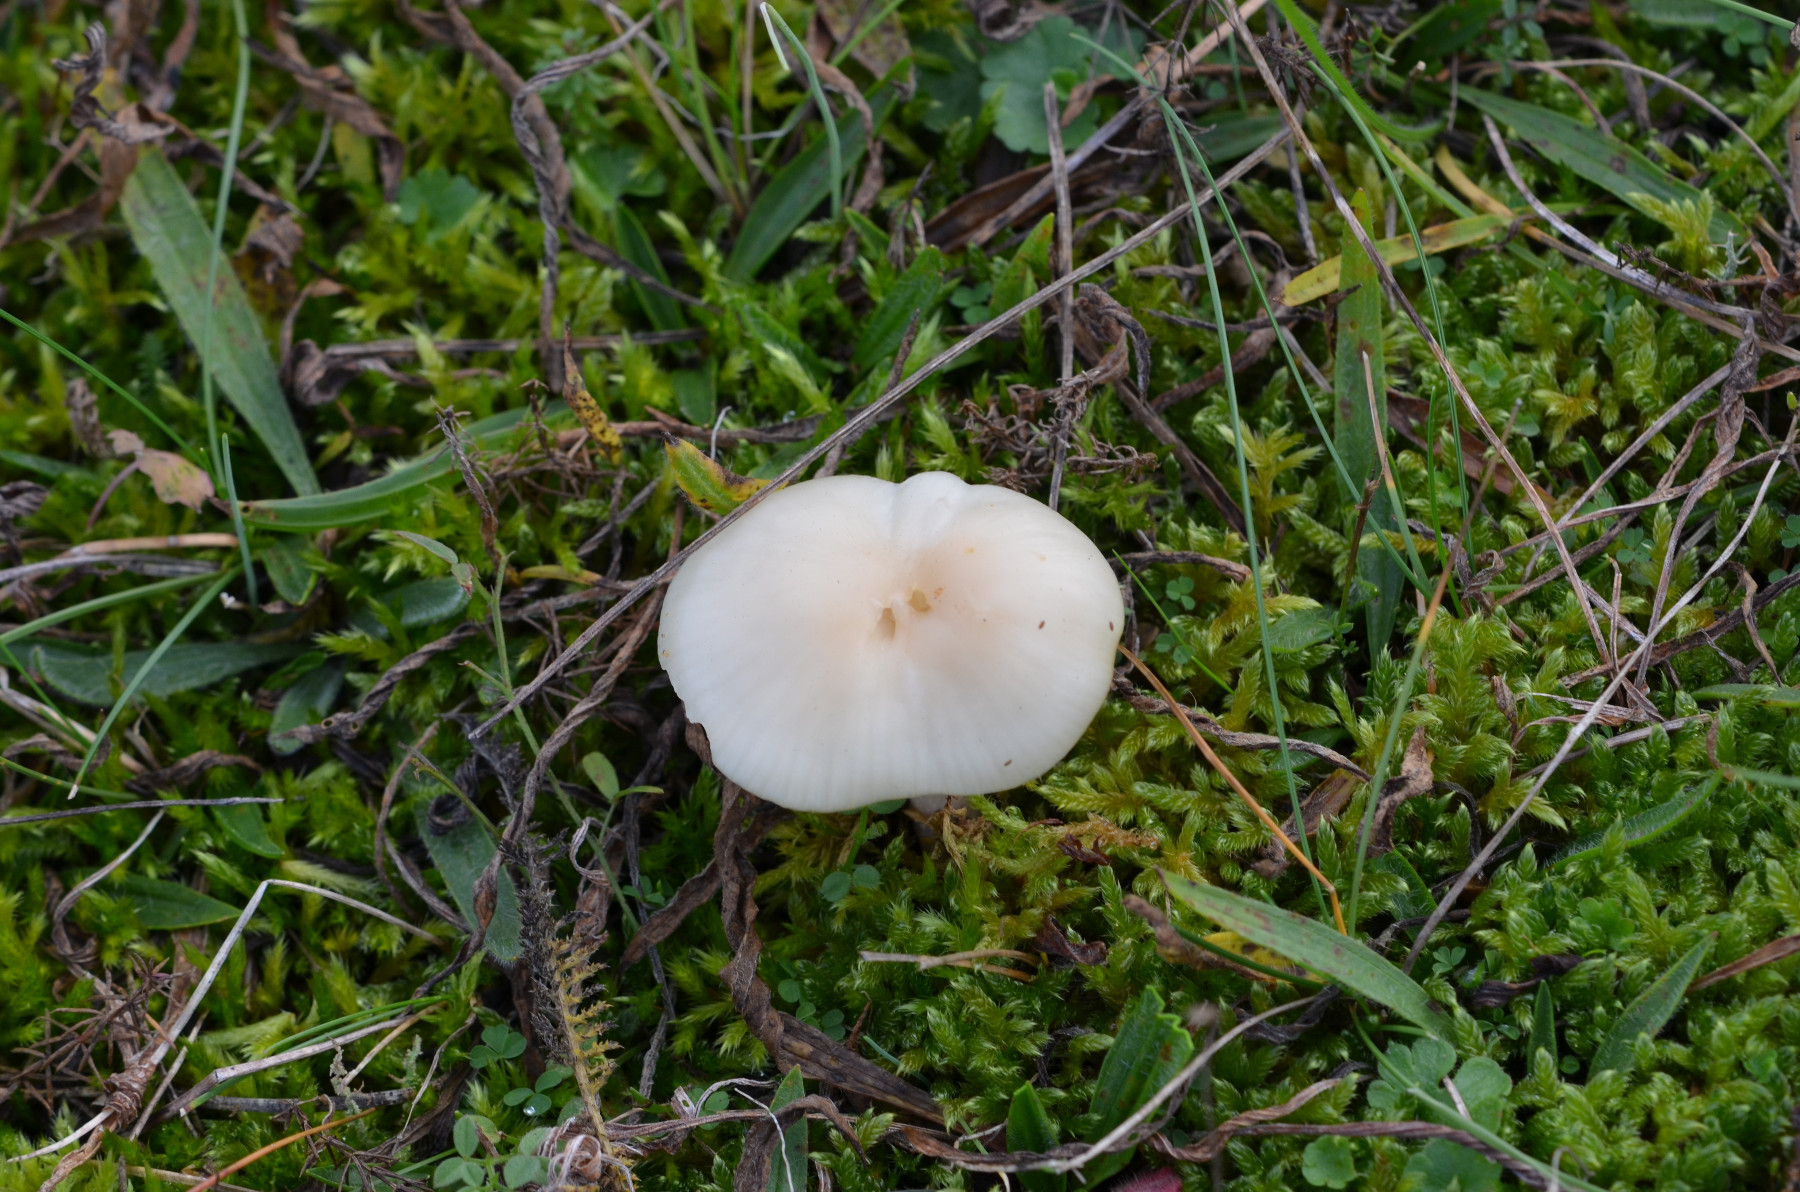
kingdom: Fungi
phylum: Basidiomycota
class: Agaricomycetes
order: Agaricales
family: Hygrophoraceae
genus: Cuphophyllus
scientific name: Cuphophyllus
